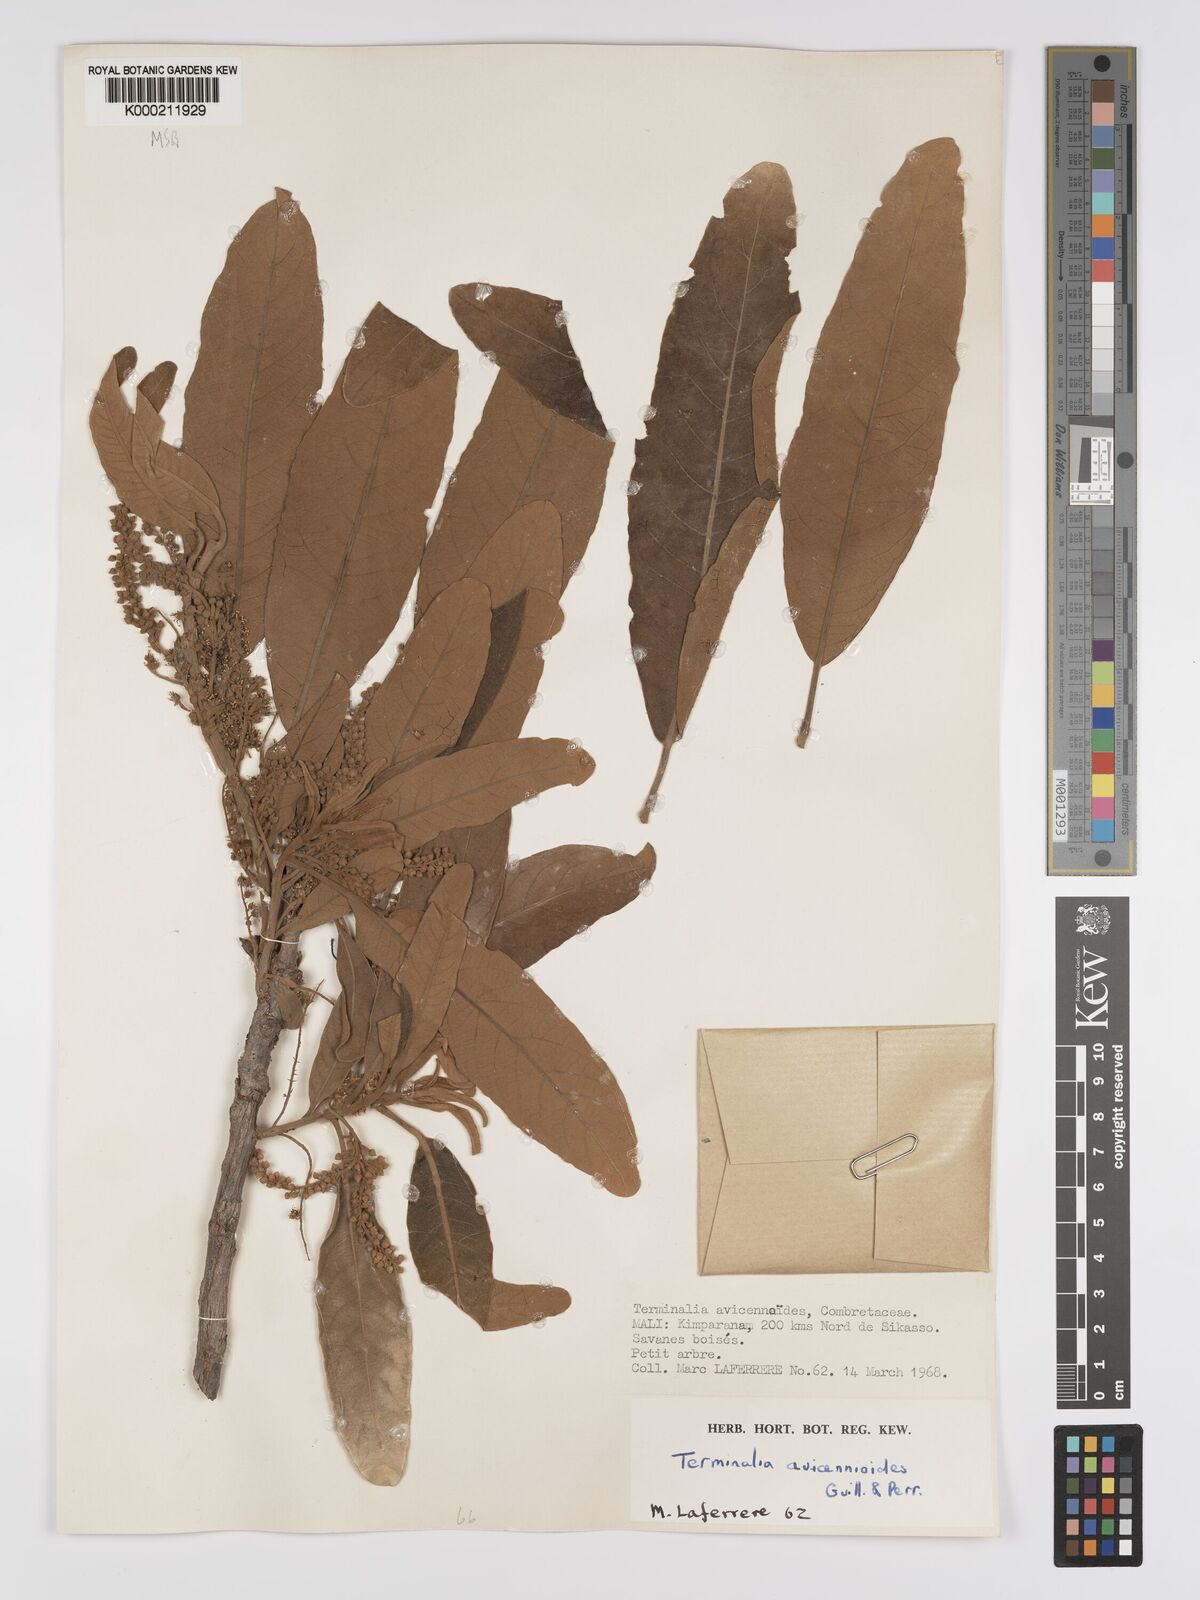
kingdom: Plantae
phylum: Tracheophyta
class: Magnoliopsida
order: Myrtales
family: Combretaceae
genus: Terminalia
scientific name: Terminalia avicennioides
